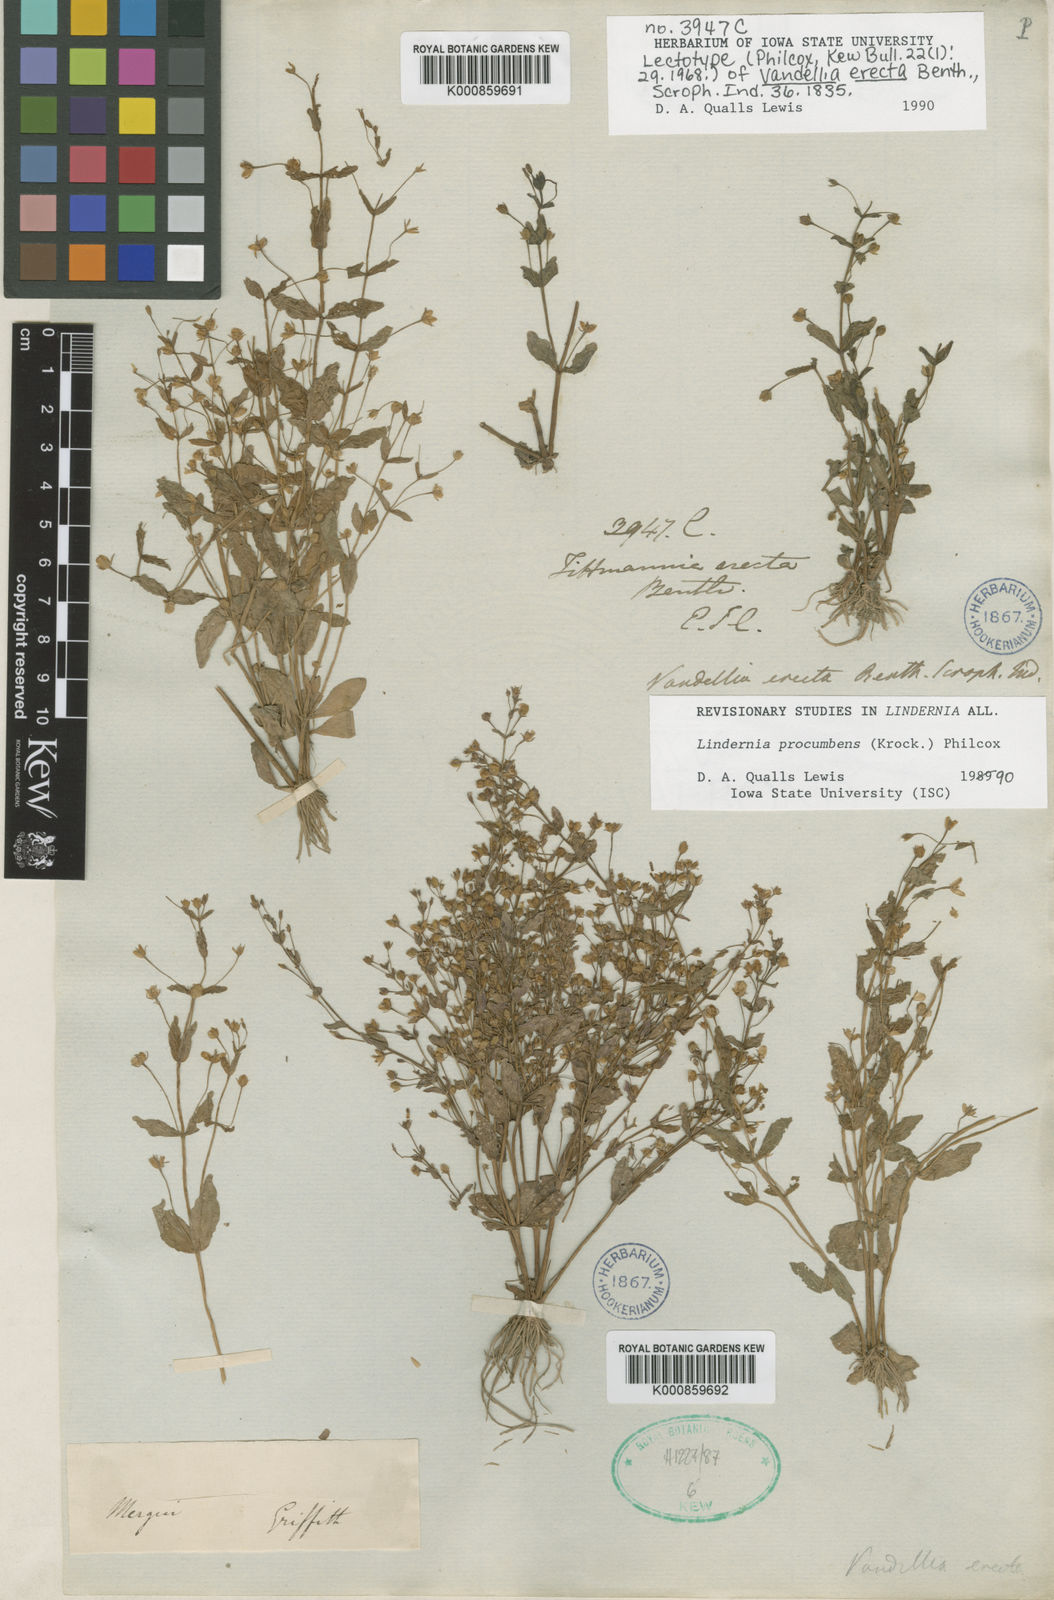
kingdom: Plantae
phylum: Tracheophyta
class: Magnoliopsida
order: Lamiales
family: Linderniaceae
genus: Lindernia
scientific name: Lindernia procumbens
